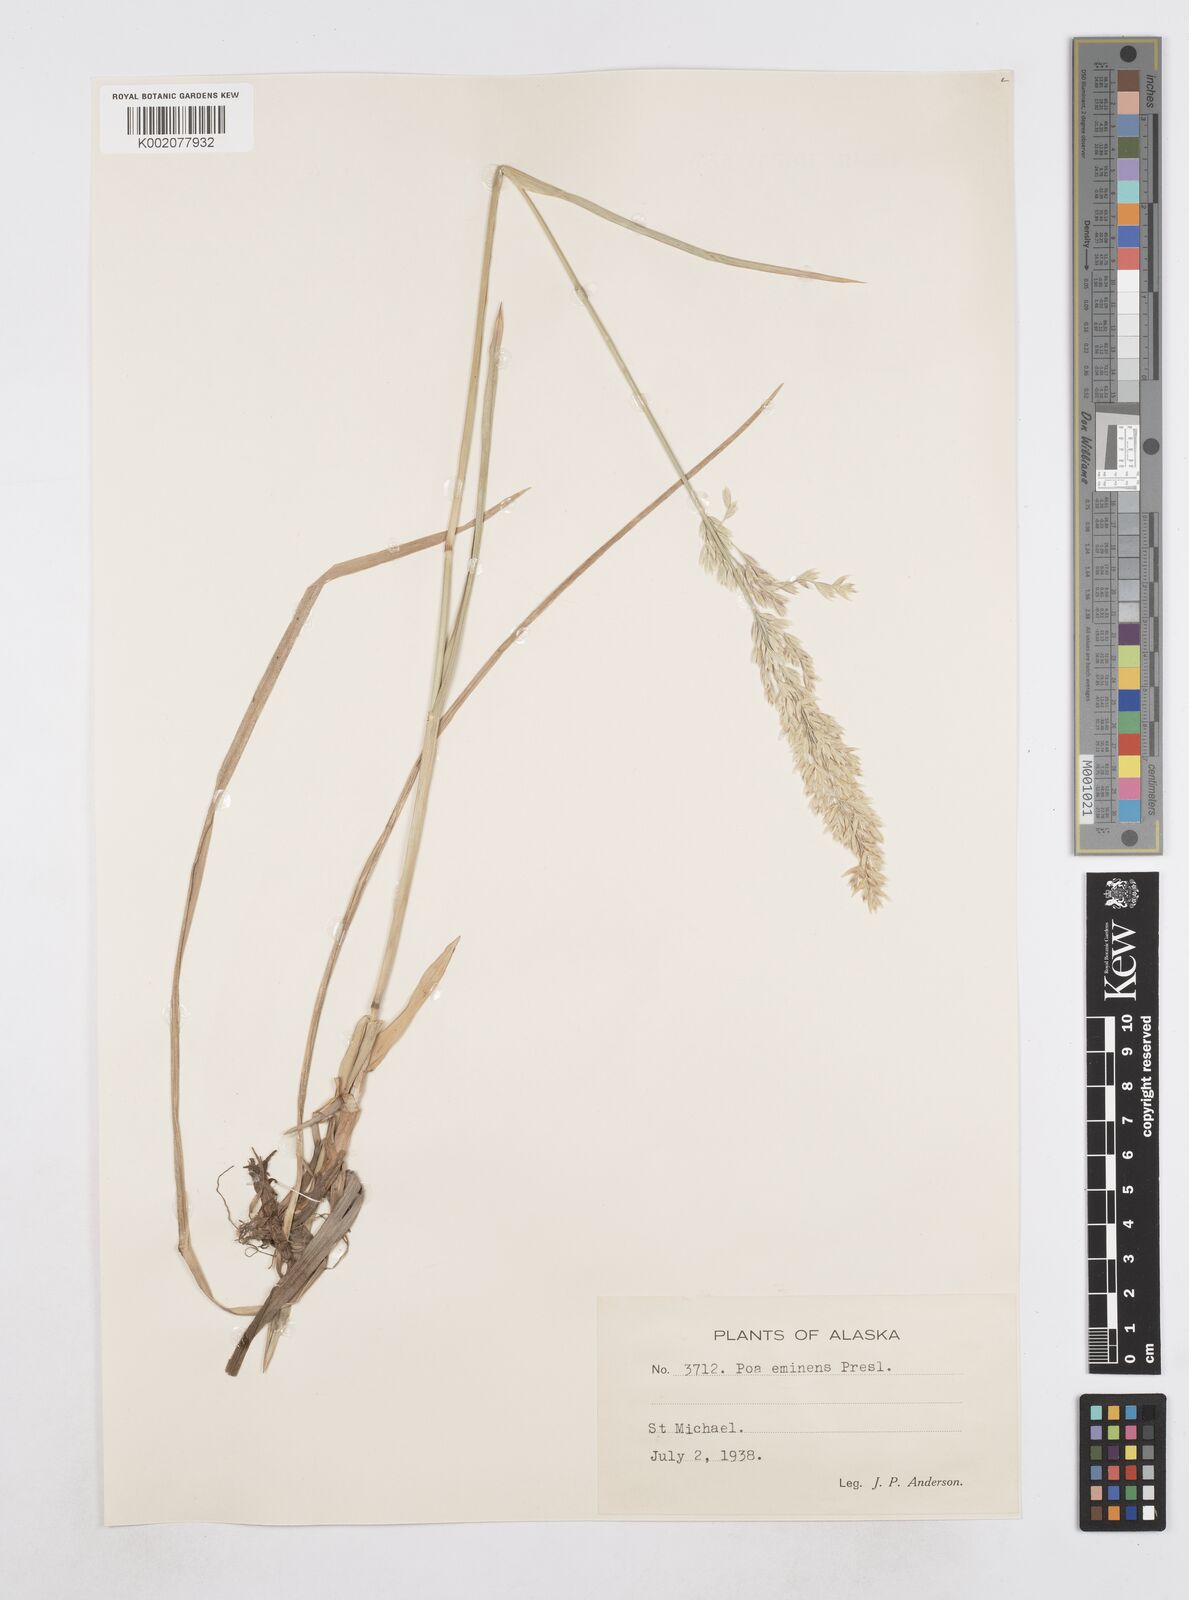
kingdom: Plantae
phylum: Tracheophyta
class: Liliopsida
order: Poales
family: Poaceae
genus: Arctopoa
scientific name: Arctopoa eminens
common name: Eminent bluegrass
